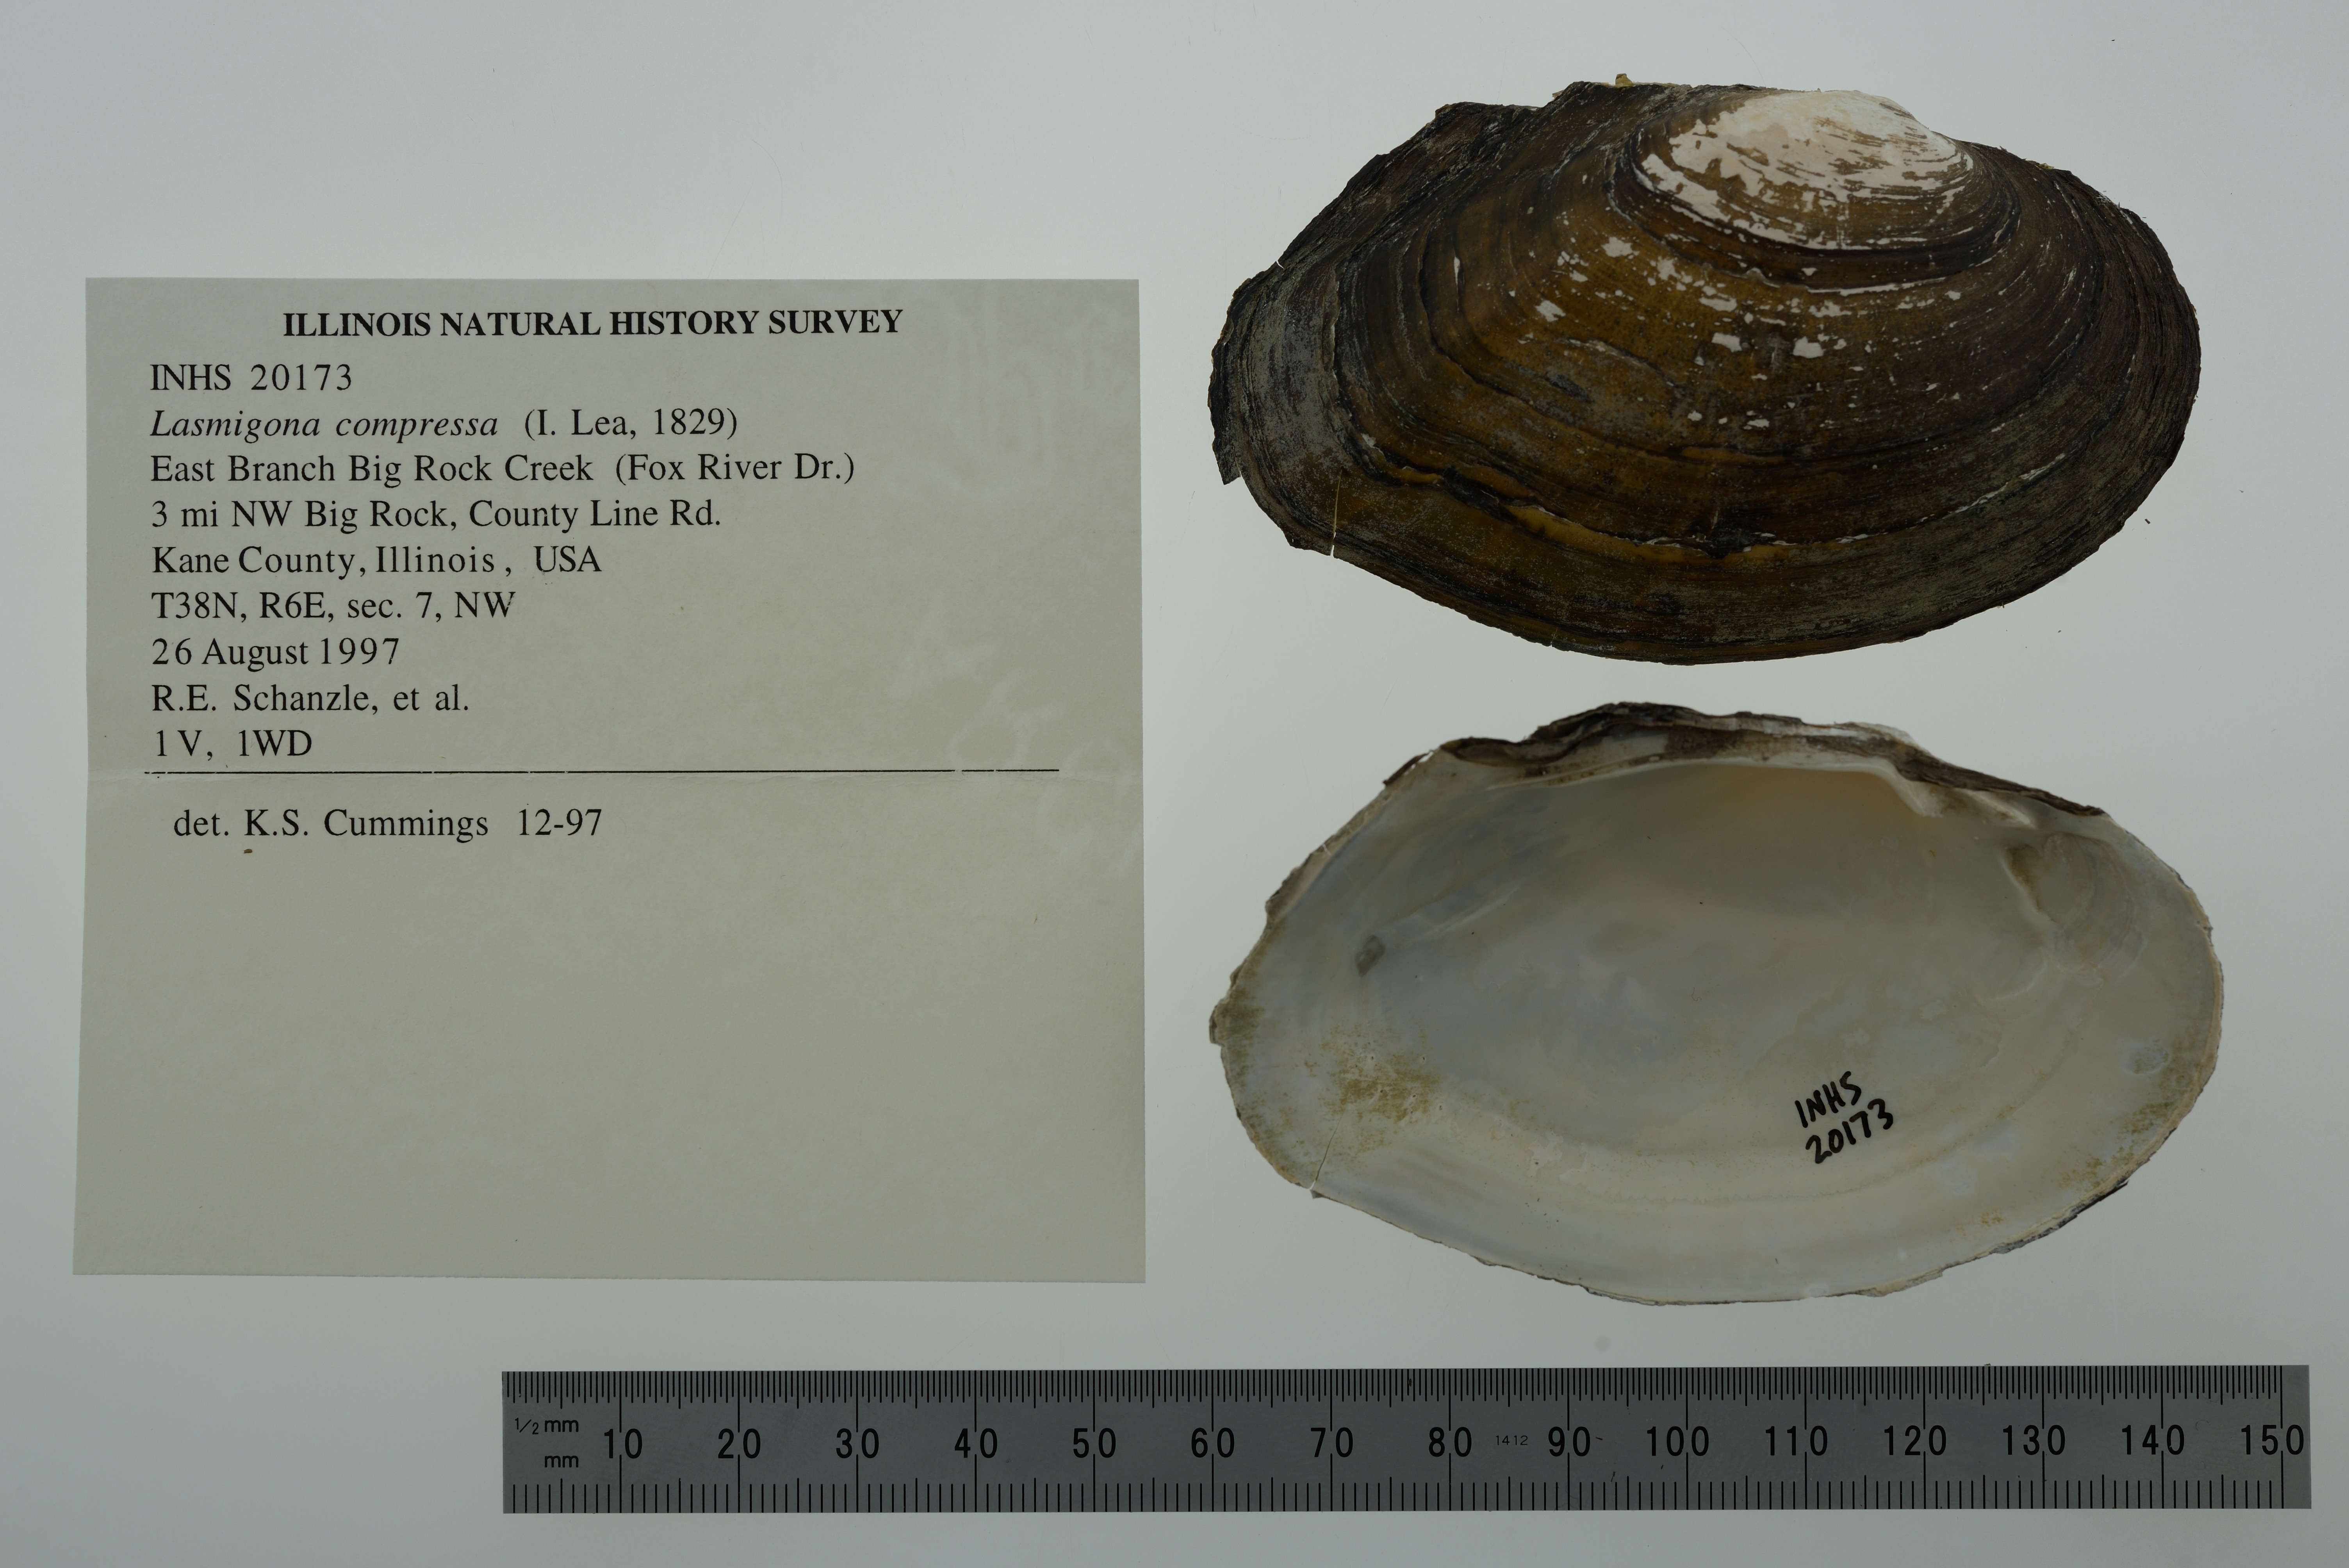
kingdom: Animalia
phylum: Mollusca
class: Bivalvia
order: Unionida
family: Unionidae
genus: Lasmigona
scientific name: Lasmigona compressa
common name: Creek heelsplitter
